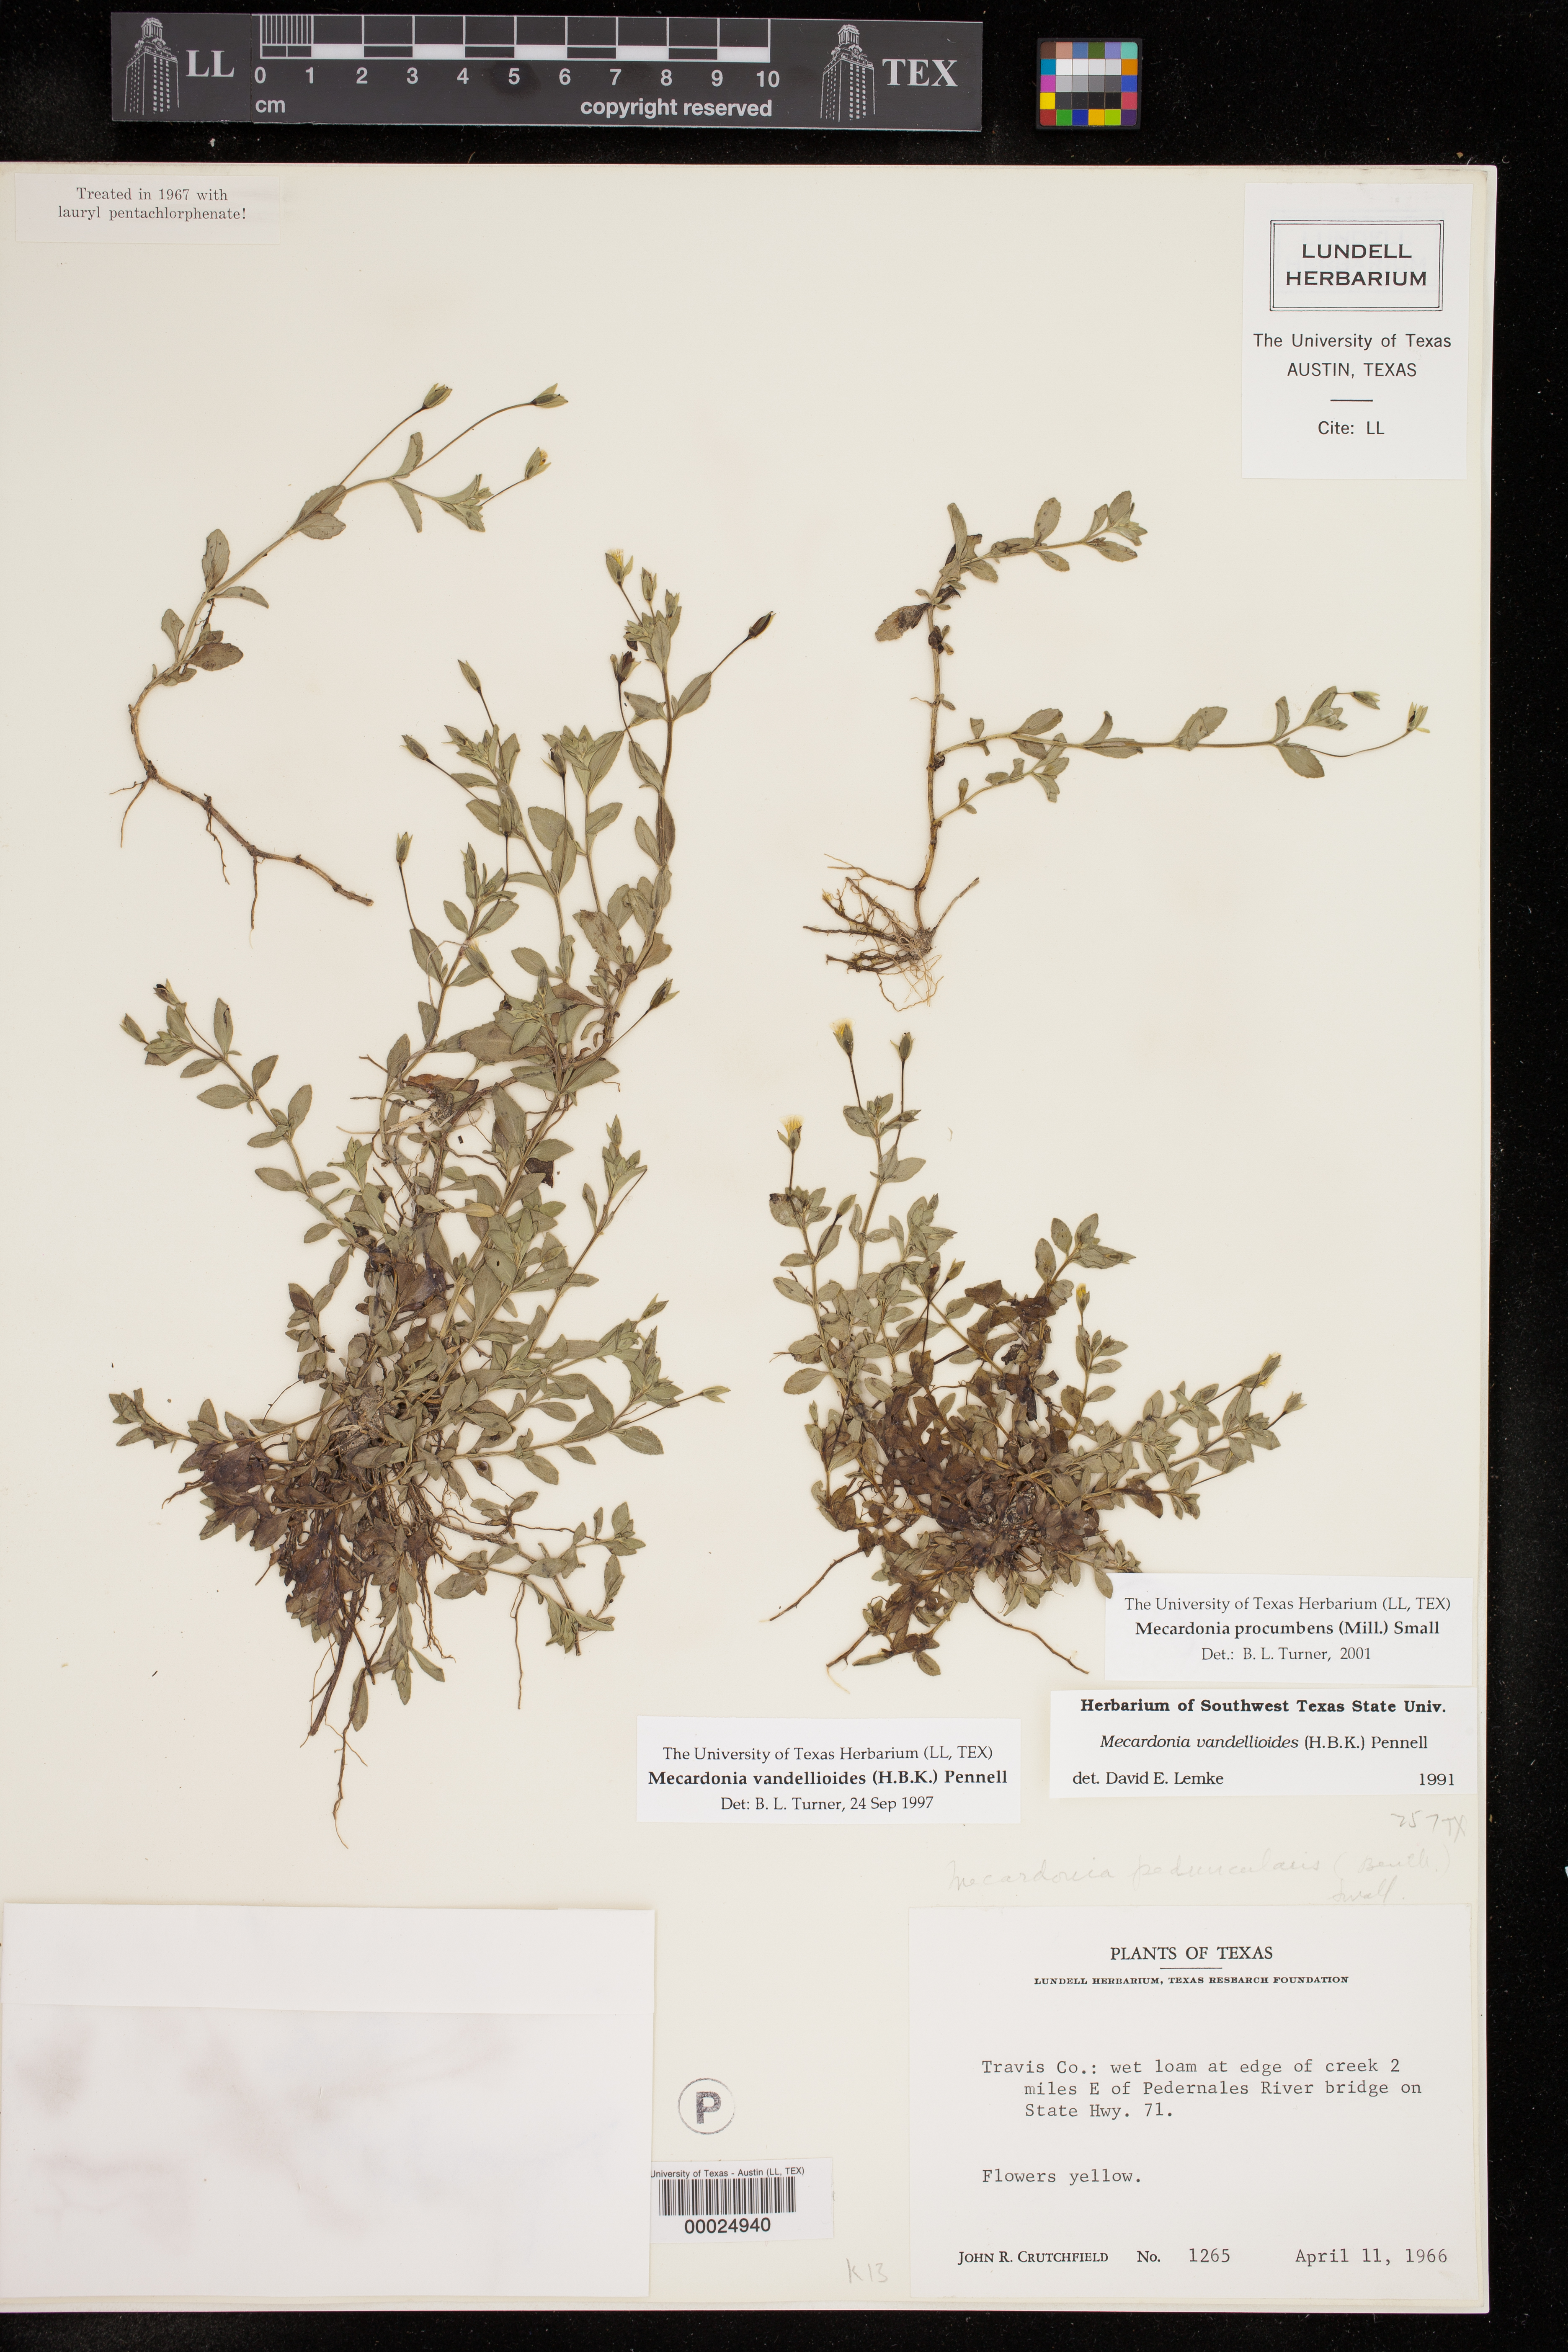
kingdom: Plantae
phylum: Tracheophyta
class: Magnoliopsida
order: Lamiales
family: Plantaginaceae
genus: Mecardonia
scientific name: Mecardonia procumbens
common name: Baby jump-up
